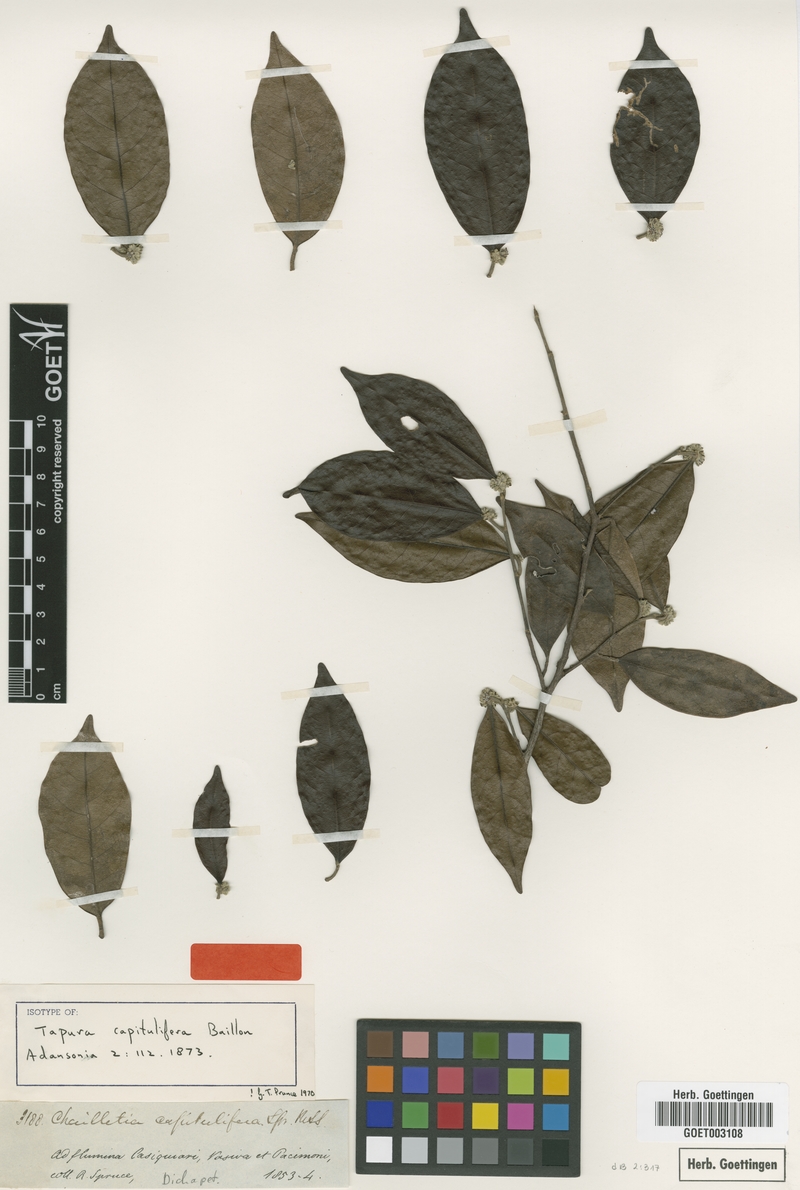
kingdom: Plantae
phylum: Tracheophyta
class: Magnoliopsida
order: Malpighiales
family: Dichapetalaceae
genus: Tapura
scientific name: Tapura capitulifera
